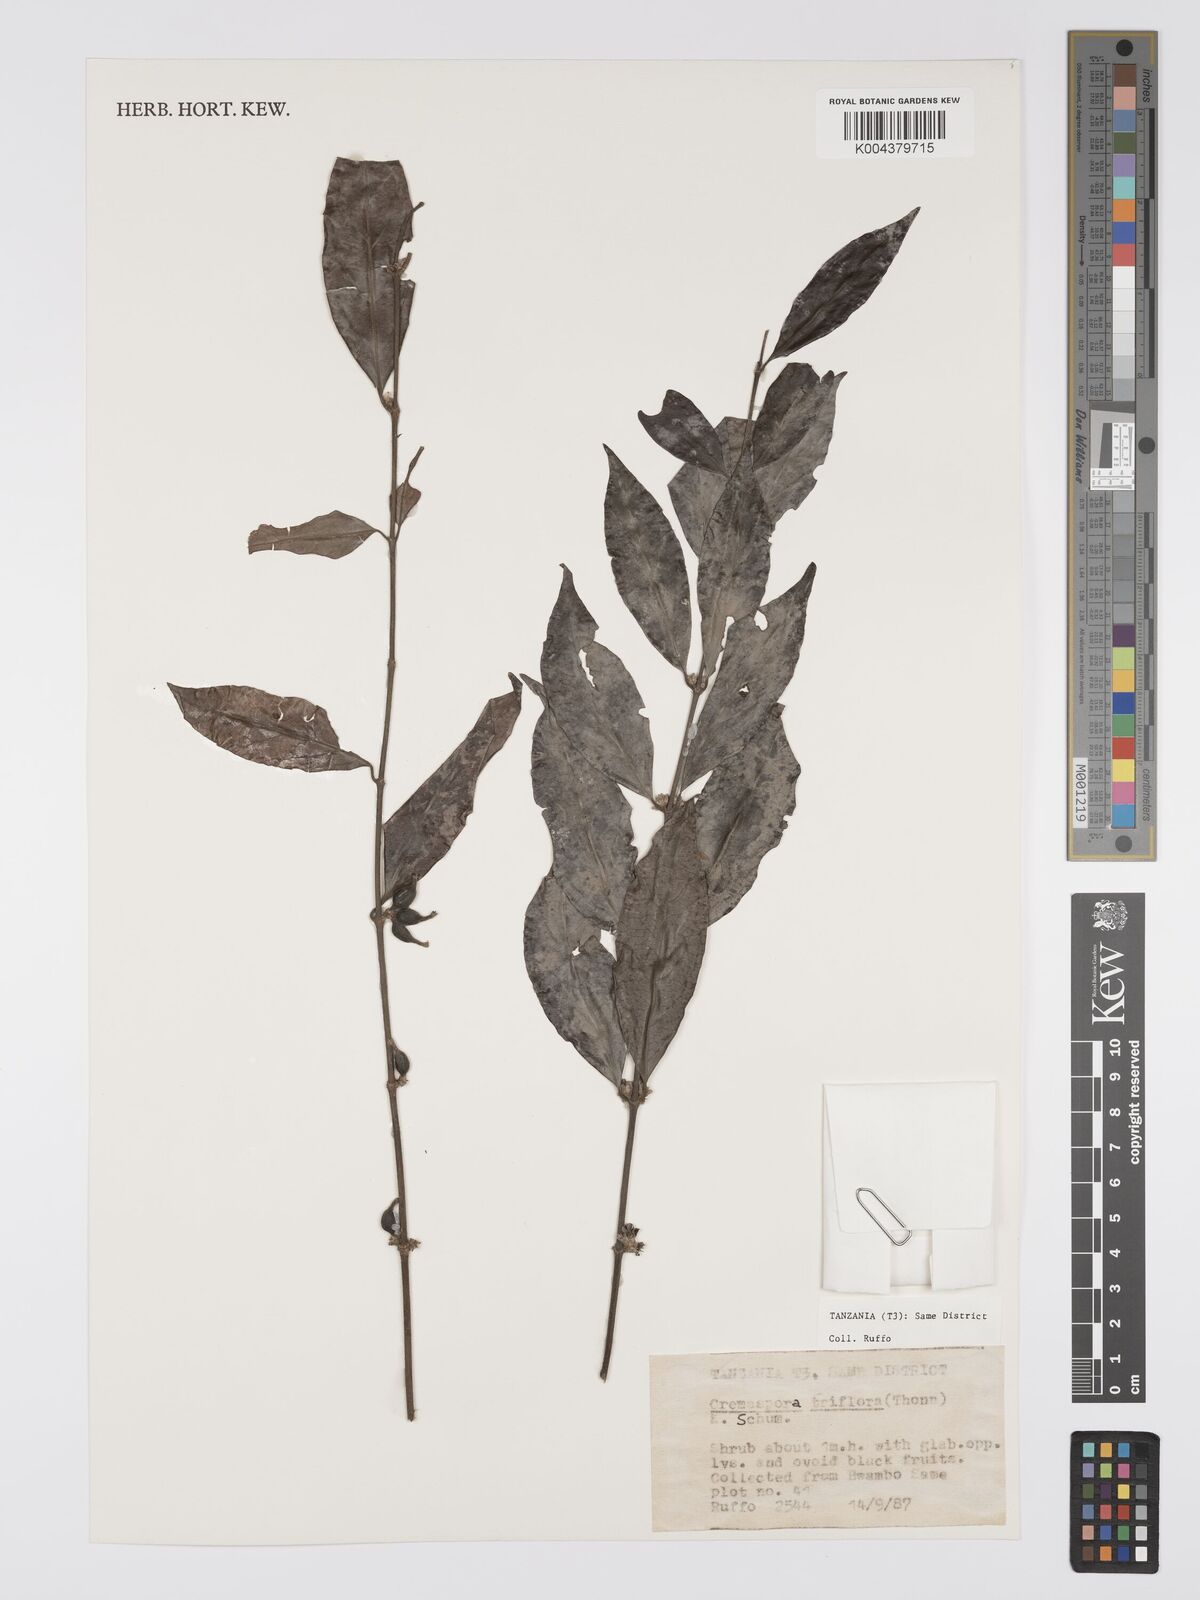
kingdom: Plantae
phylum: Tracheophyta
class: Magnoliopsida
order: Gentianales
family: Rubiaceae
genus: Cremaspora
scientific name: Cremaspora triflora
